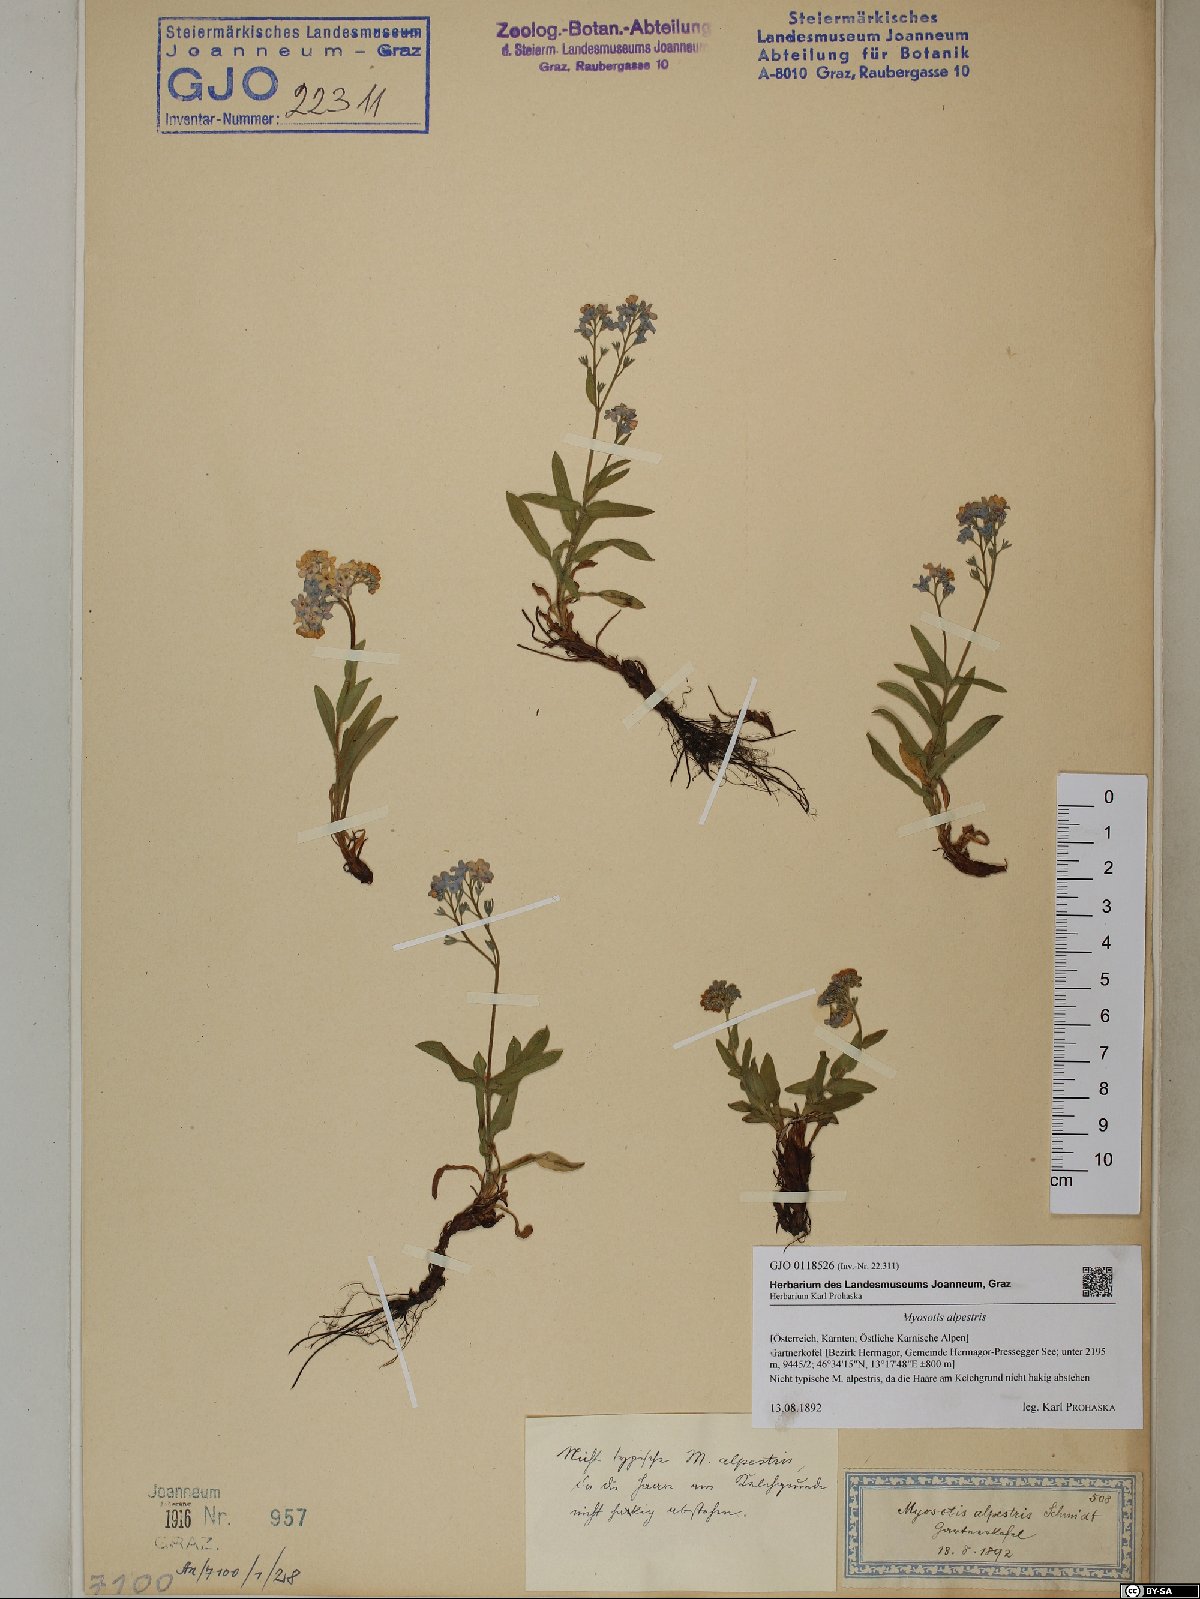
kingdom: Plantae
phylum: Tracheophyta
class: Magnoliopsida
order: Boraginales
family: Boraginaceae
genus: Myosotis
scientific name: Myosotis alpestris
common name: Alpine forget-me-not
